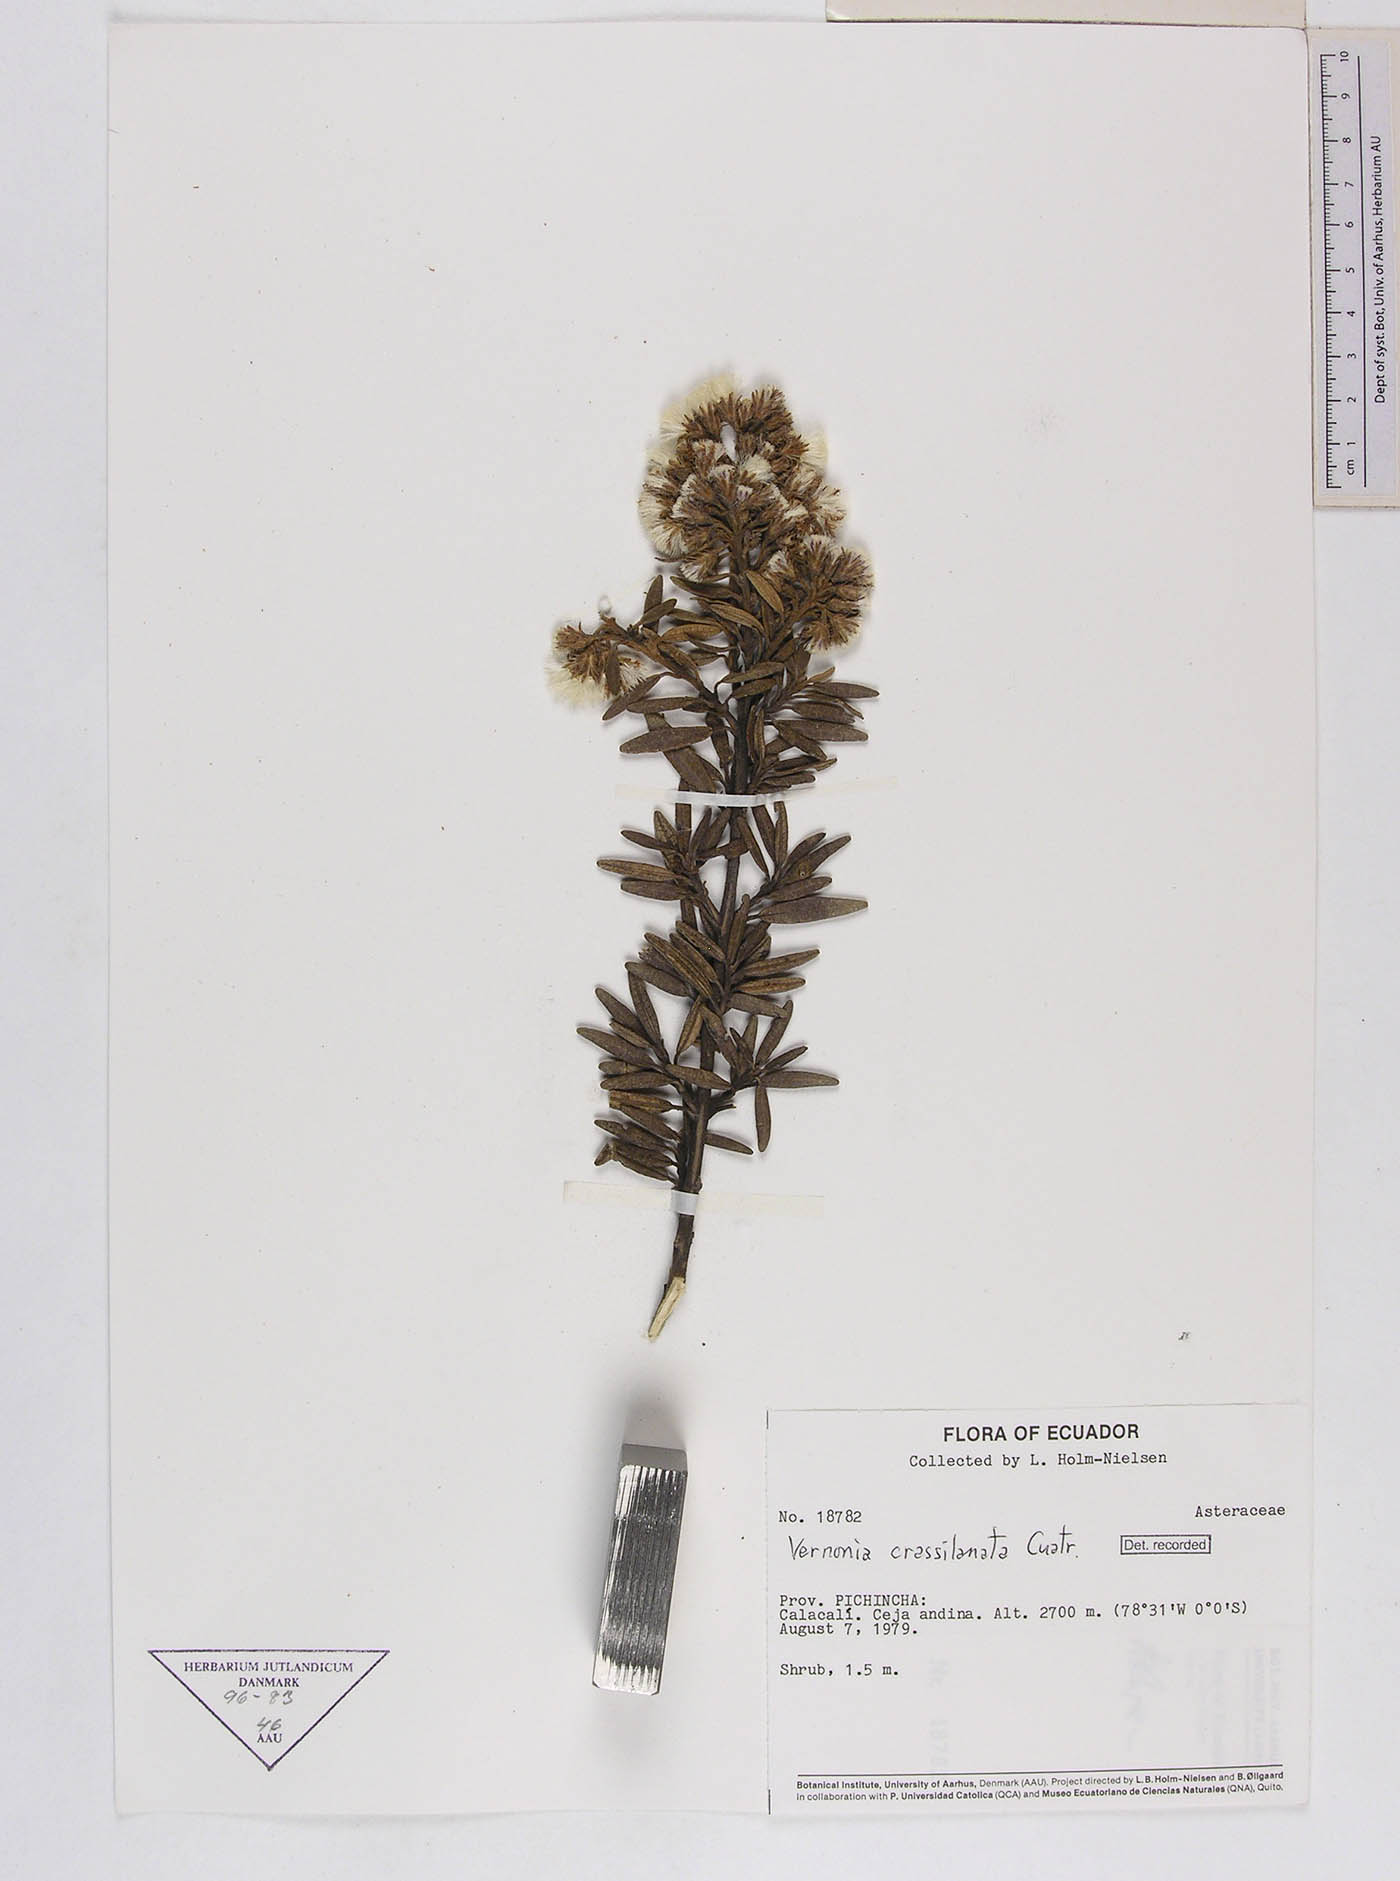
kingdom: Plantae
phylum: Tracheophyta
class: Magnoliopsida
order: Asterales
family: Asteraceae
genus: Joseanthus
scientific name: Joseanthus cuatrecasasii
